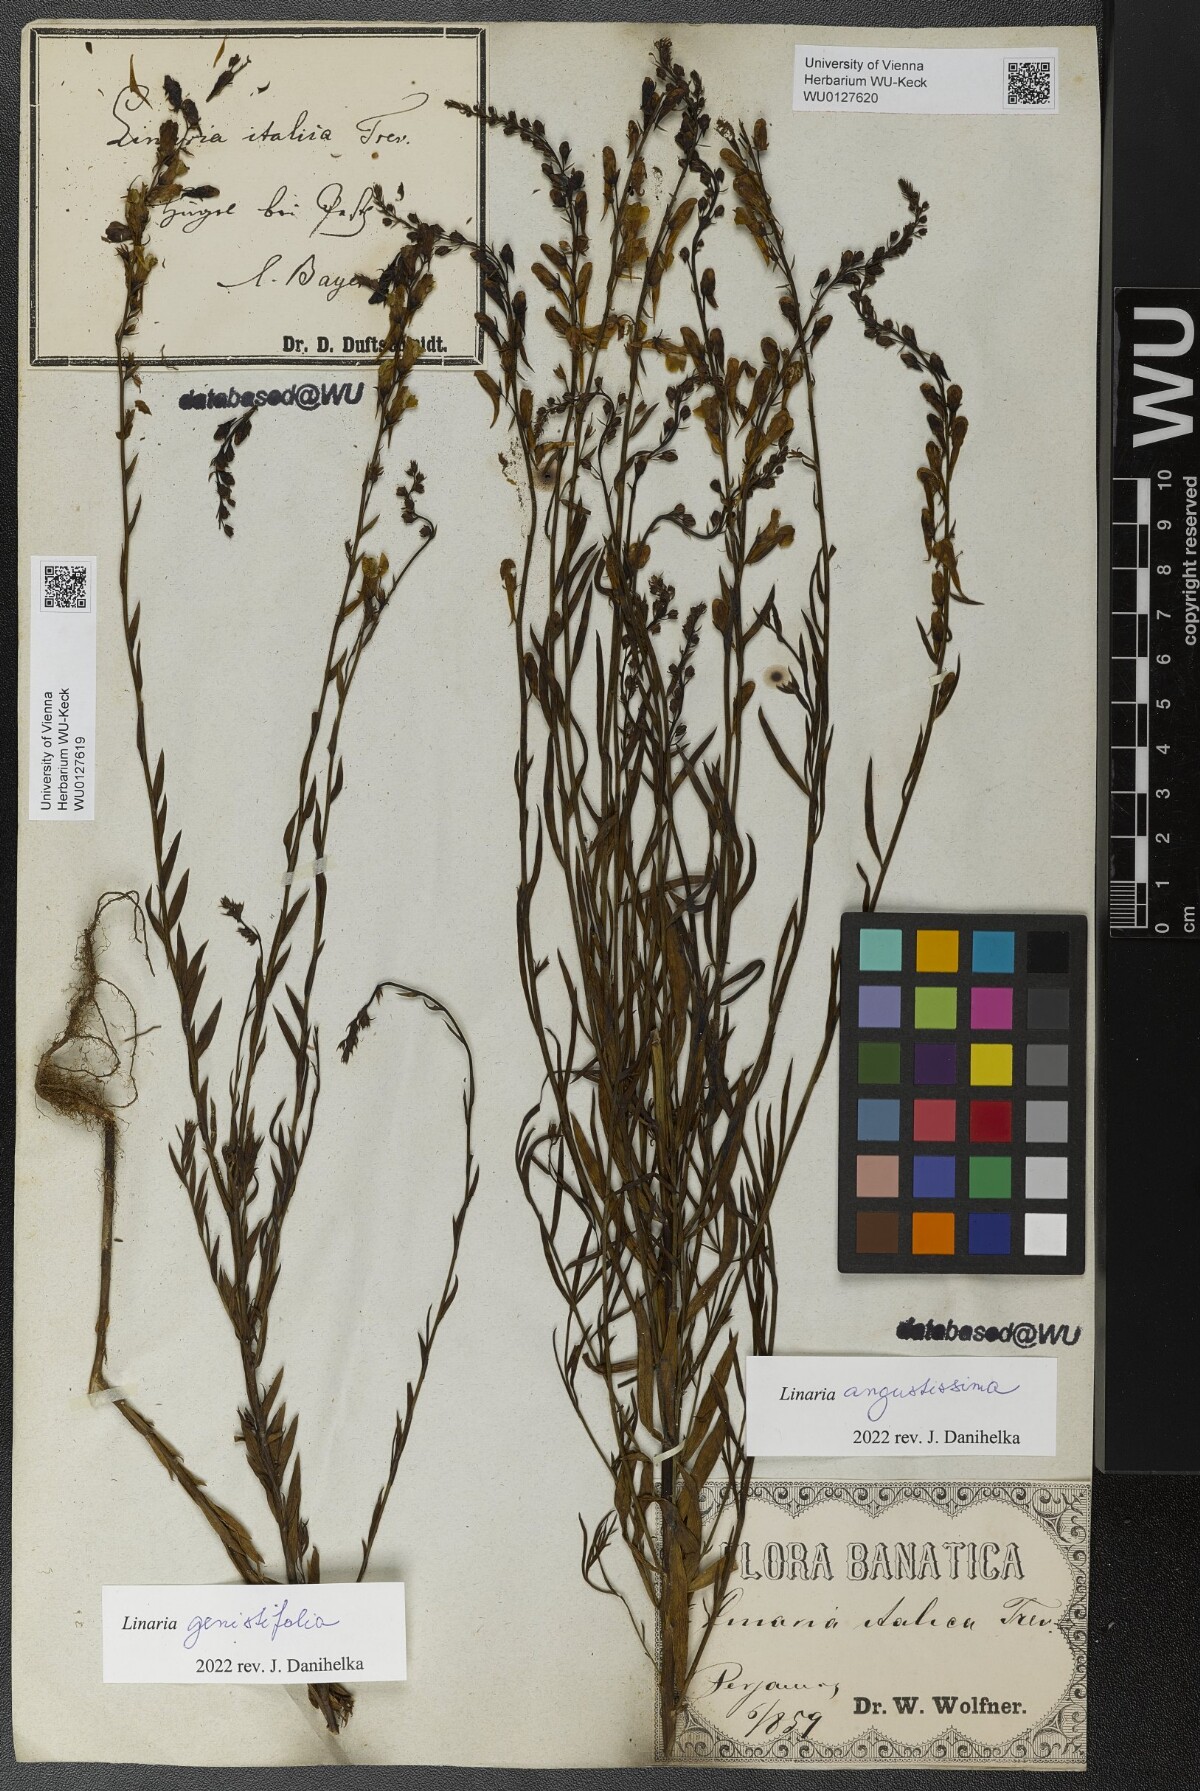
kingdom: Plantae
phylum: Tracheophyta
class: Magnoliopsida
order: Lamiales
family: Plantaginaceae
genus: Linaria
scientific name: Linaria genistifolia
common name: Broomleaf toadflax
